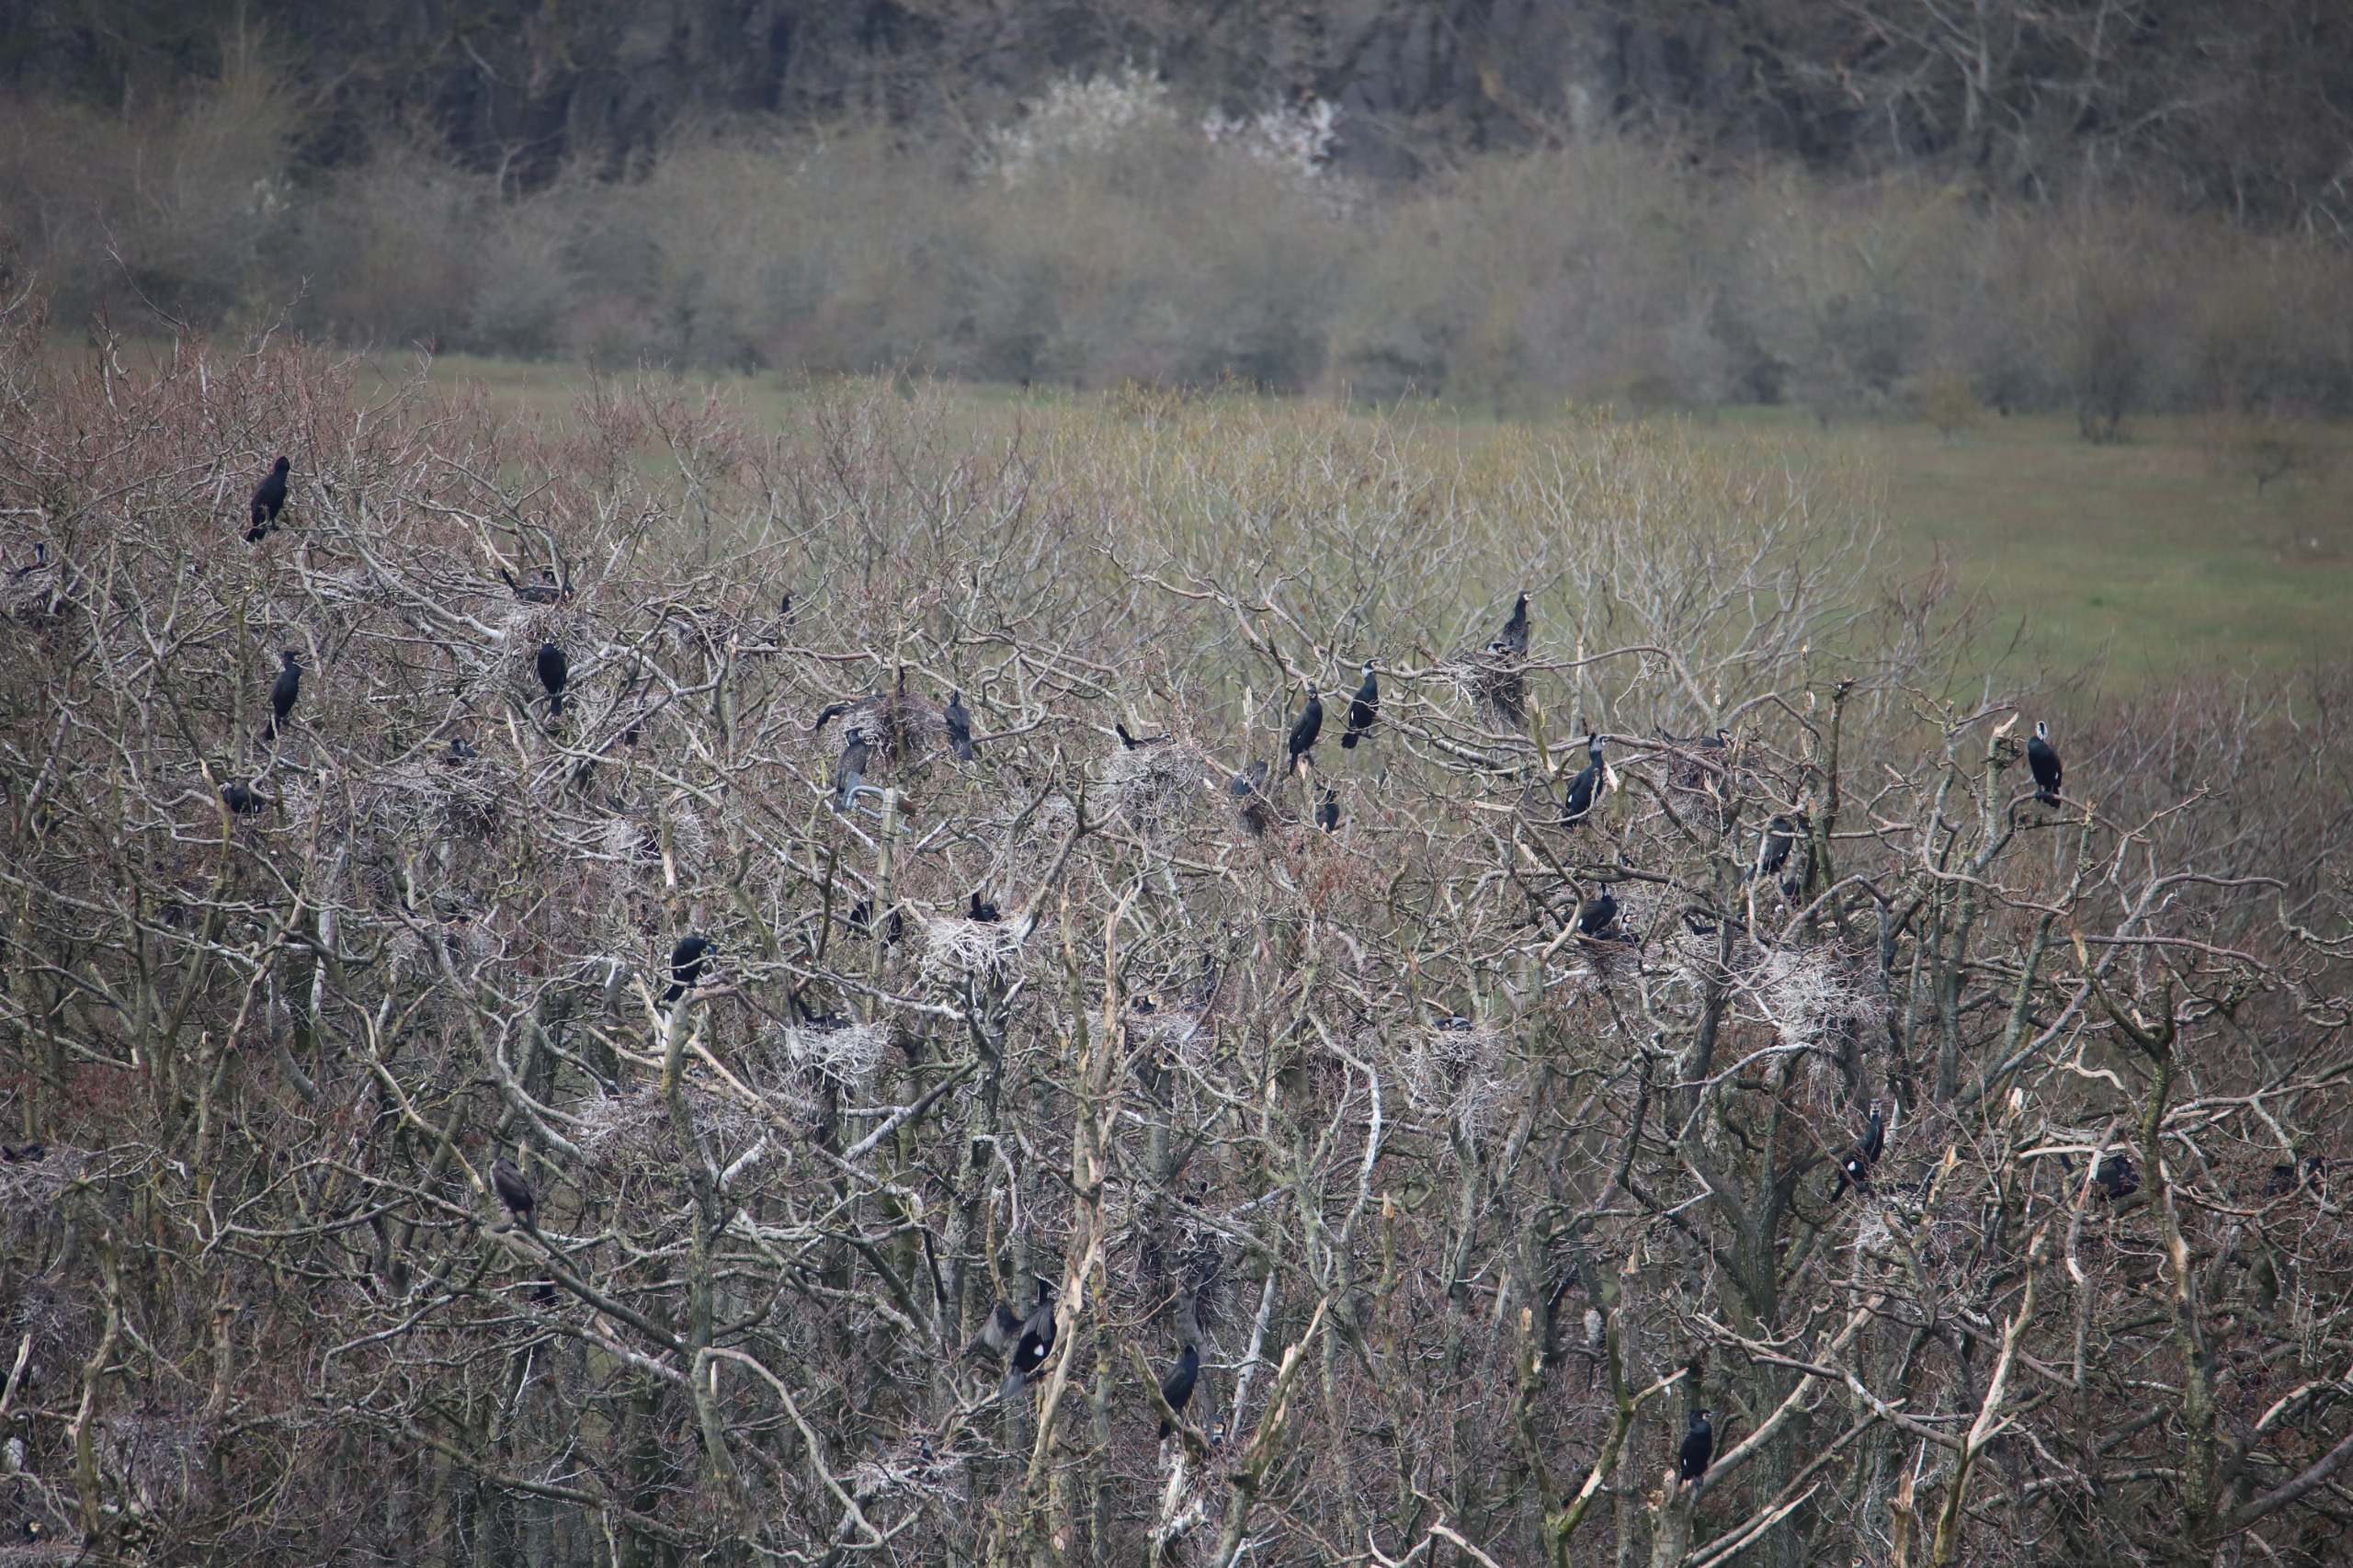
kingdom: Animalia
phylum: Chordata
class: Aves
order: Suliformes
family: Phalacrocoracidae
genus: Phalacrocorax
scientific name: Phalacrocorax carbo
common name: Skarv
